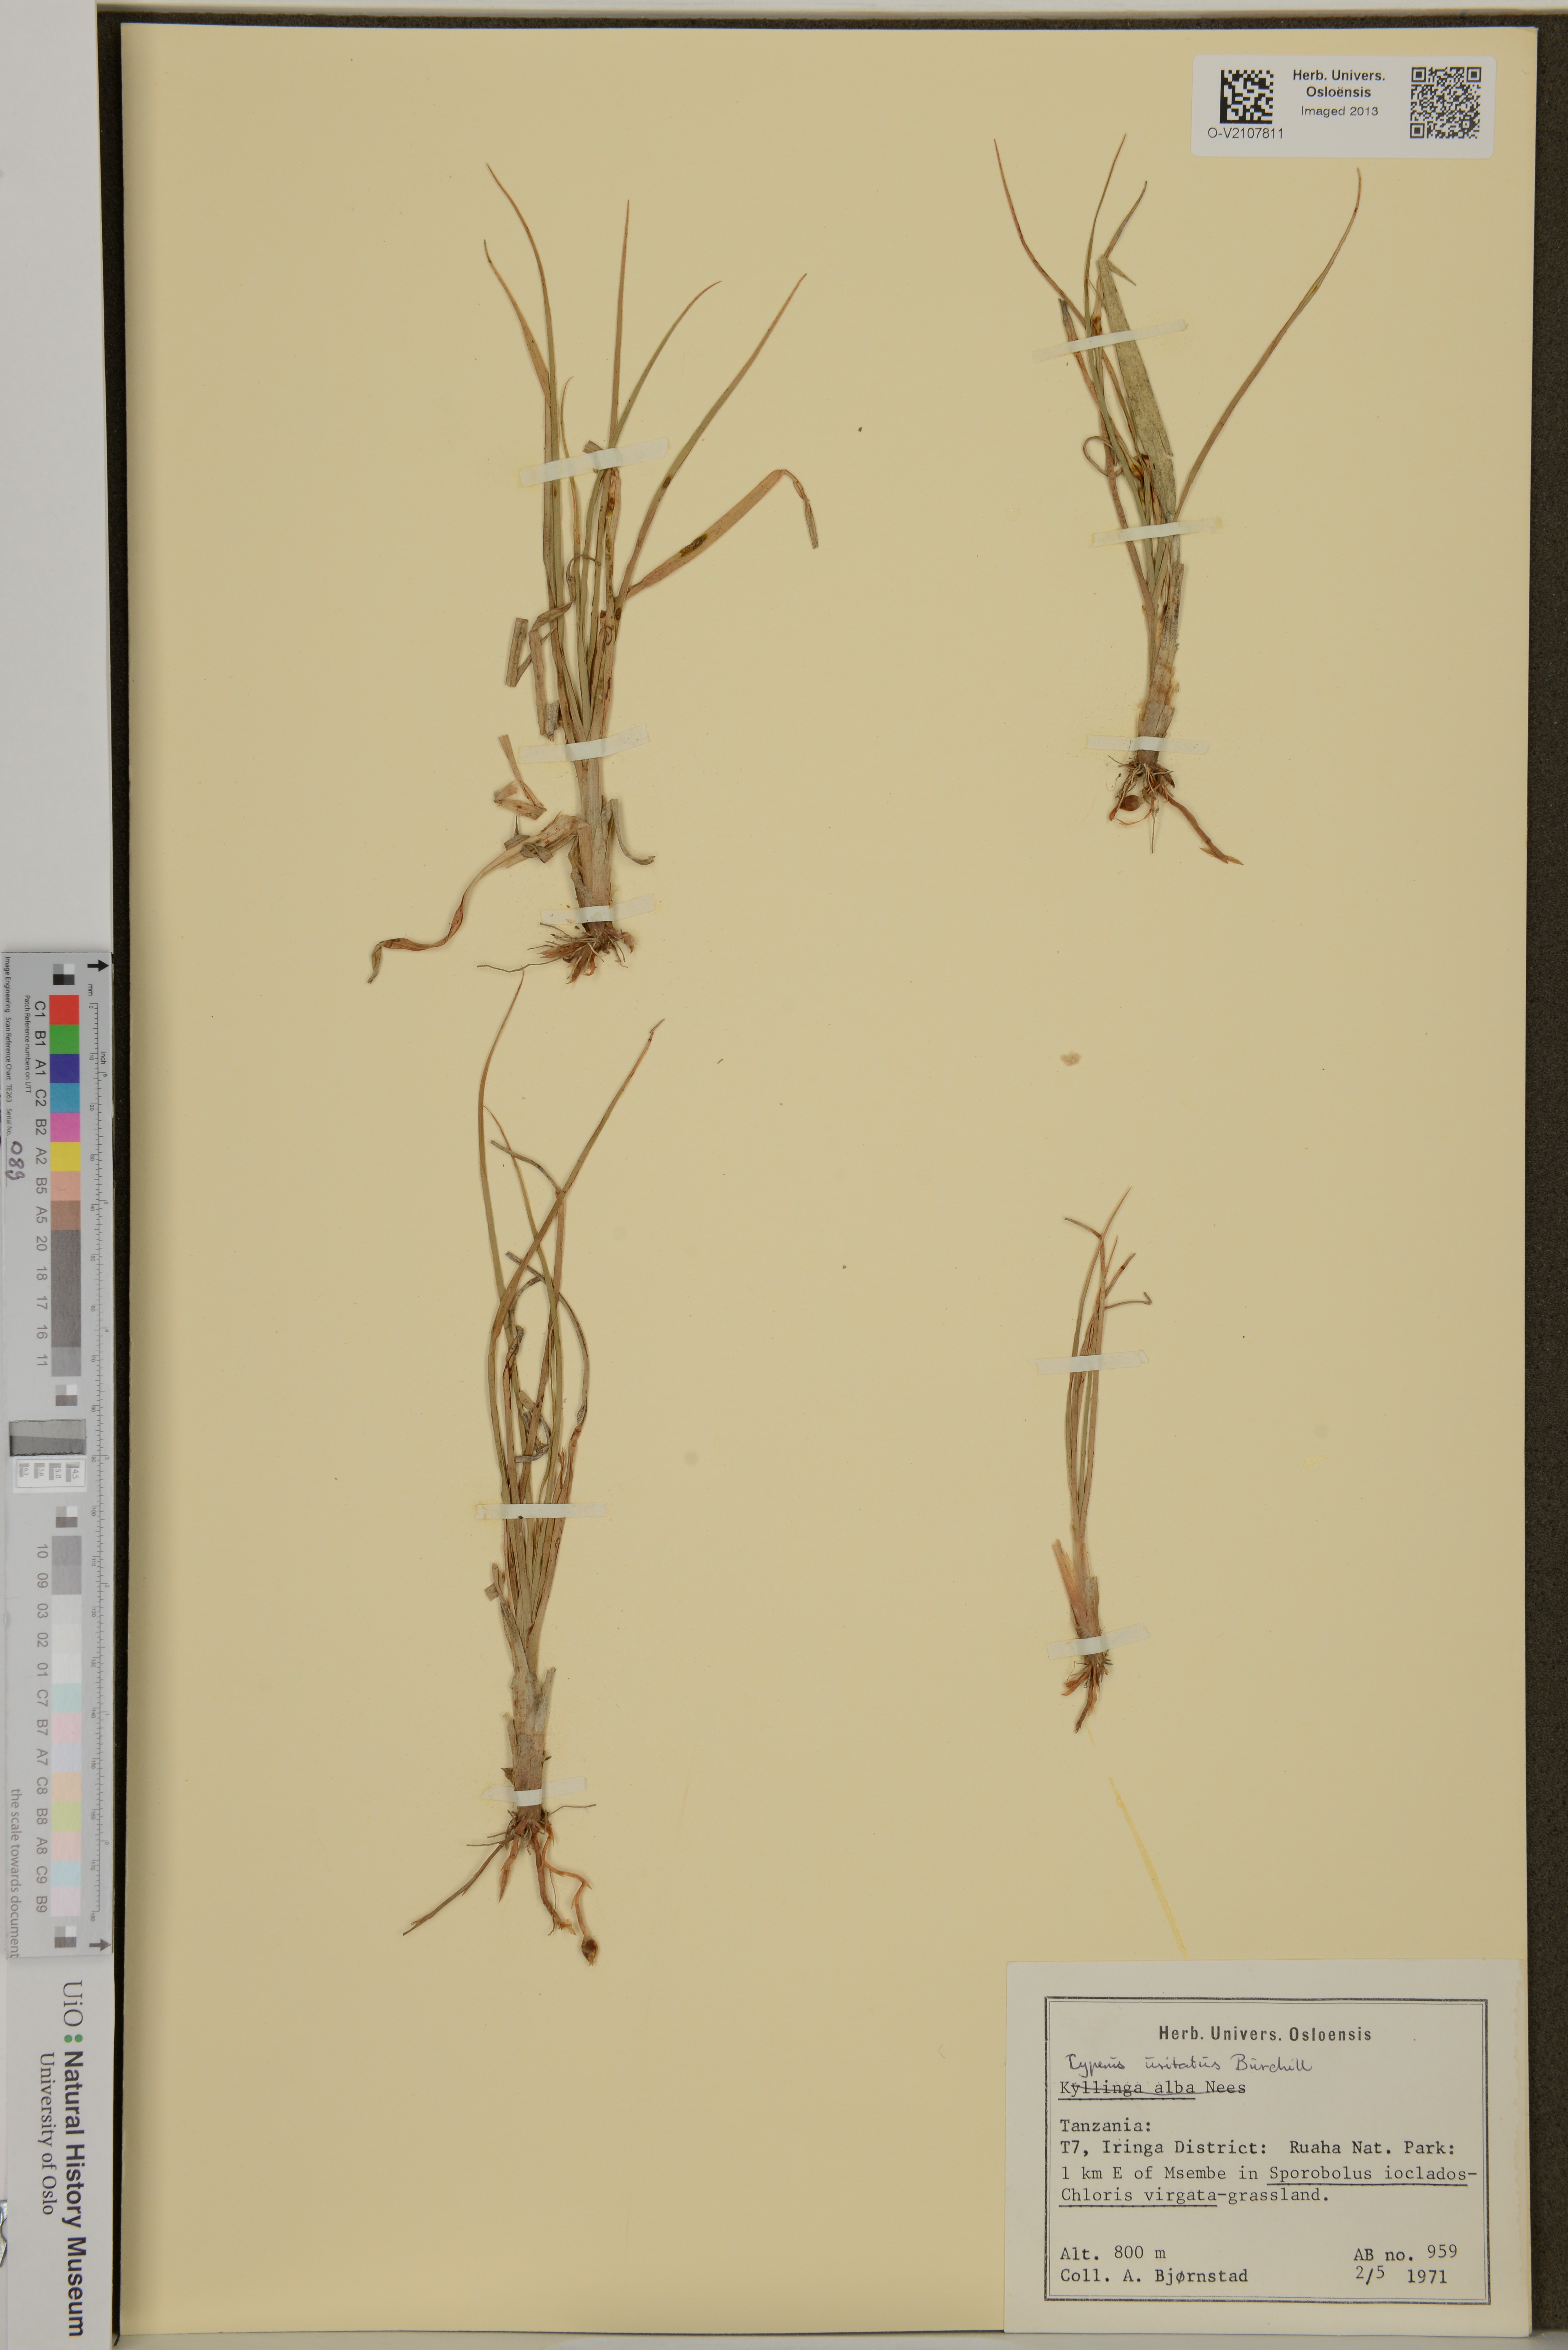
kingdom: Plantae
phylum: Tracheophyta
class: Liliopsida
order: Poales
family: Cyperaceae
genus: Cyperus
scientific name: Cyperus usitatus
